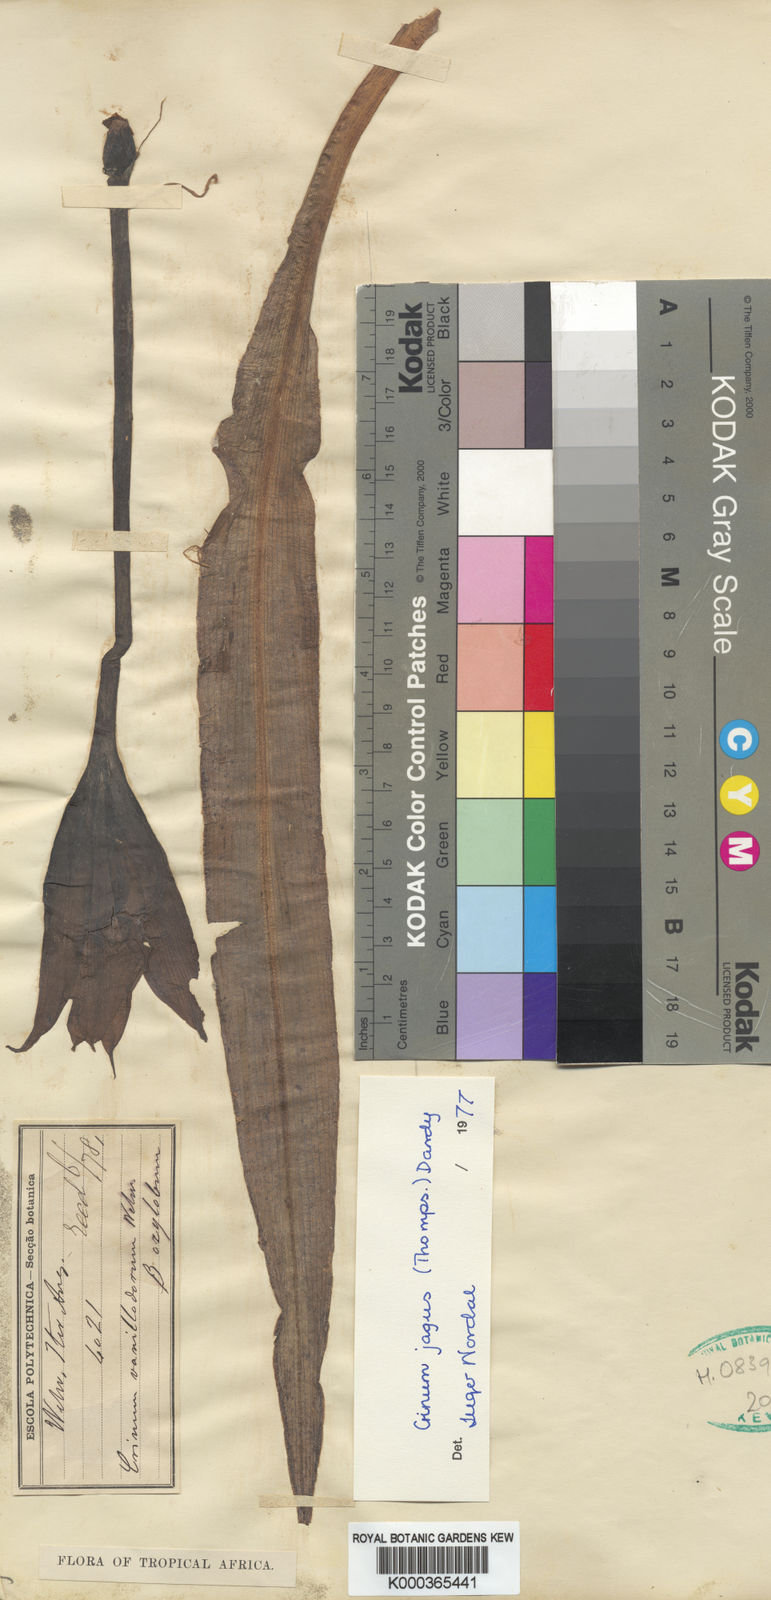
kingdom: Plantae
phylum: Tracheophyta
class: Liliopsida
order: Asparagales
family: Amaryllidaceae
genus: Crinum
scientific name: Crinum jagus
